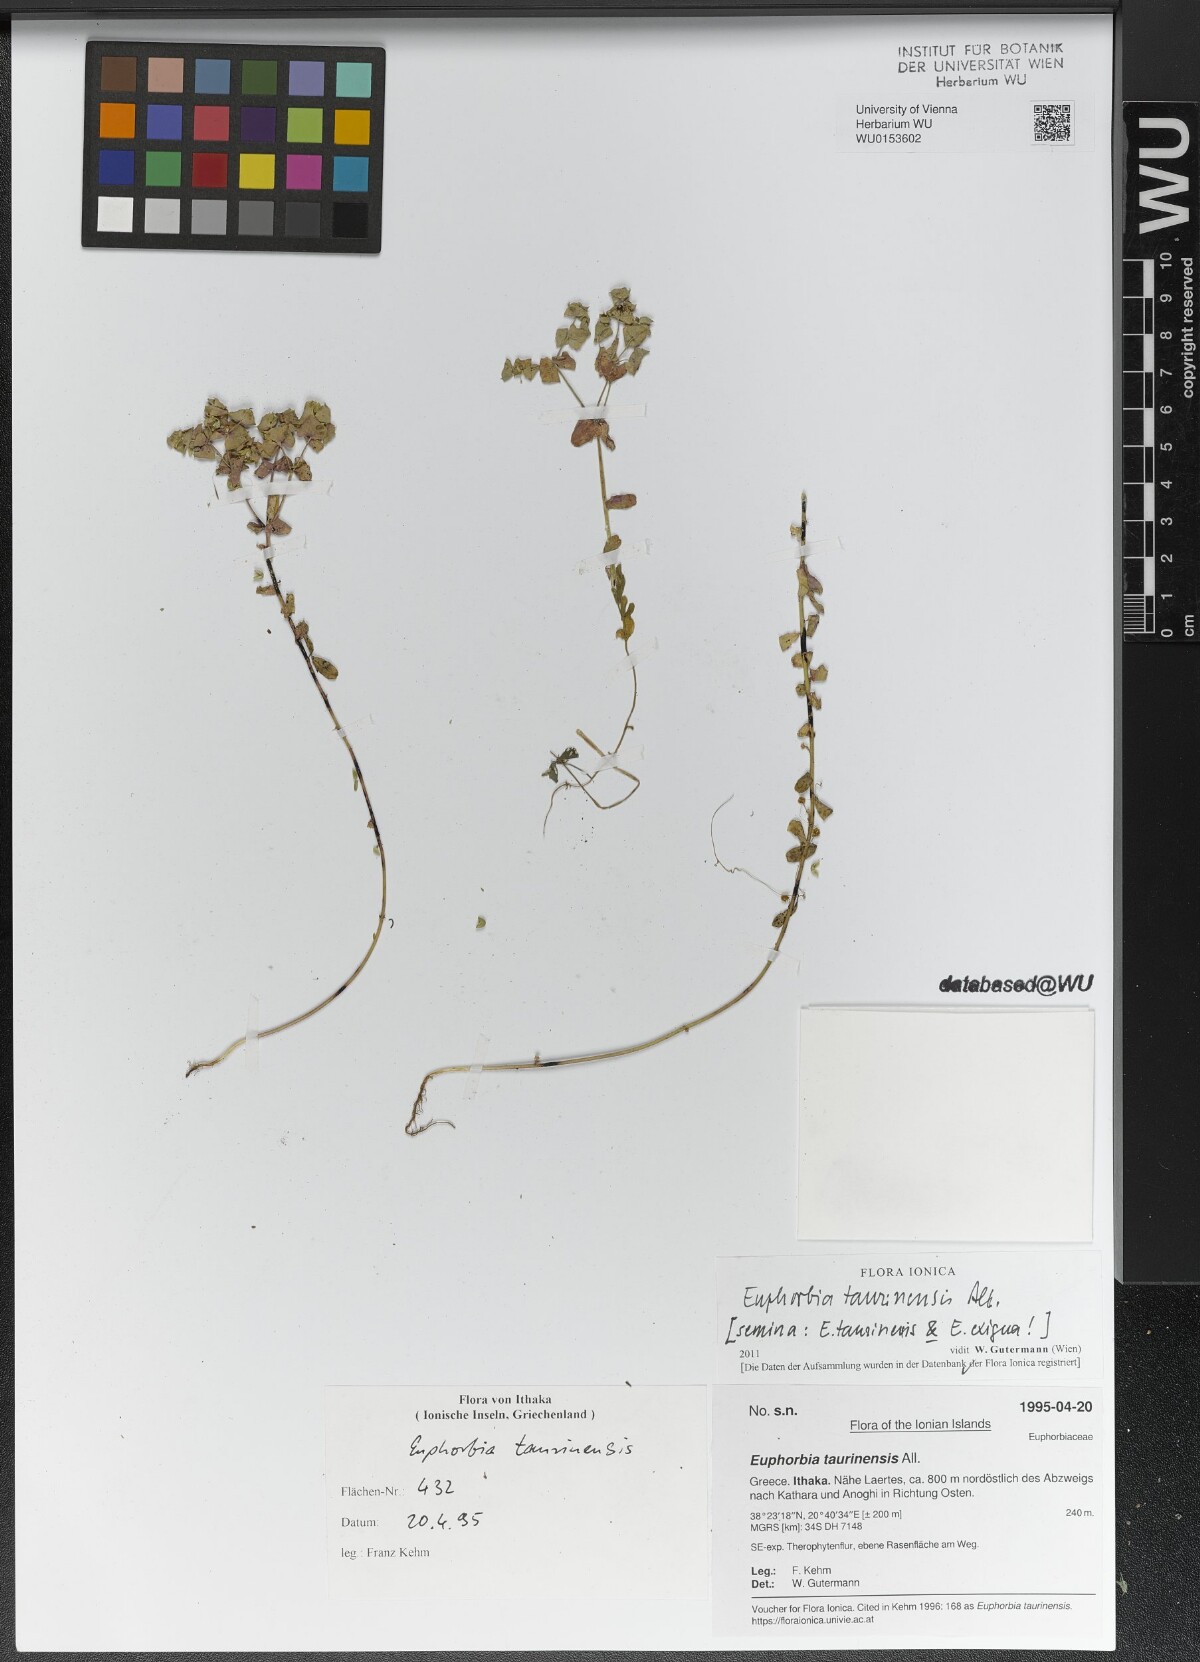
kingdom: Plantae
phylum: Tracheophyta
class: Magnoliopsida
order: Malpighiales
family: Euphorbiaceae
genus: Euphorbia
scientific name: Euphorbia taurinensis
